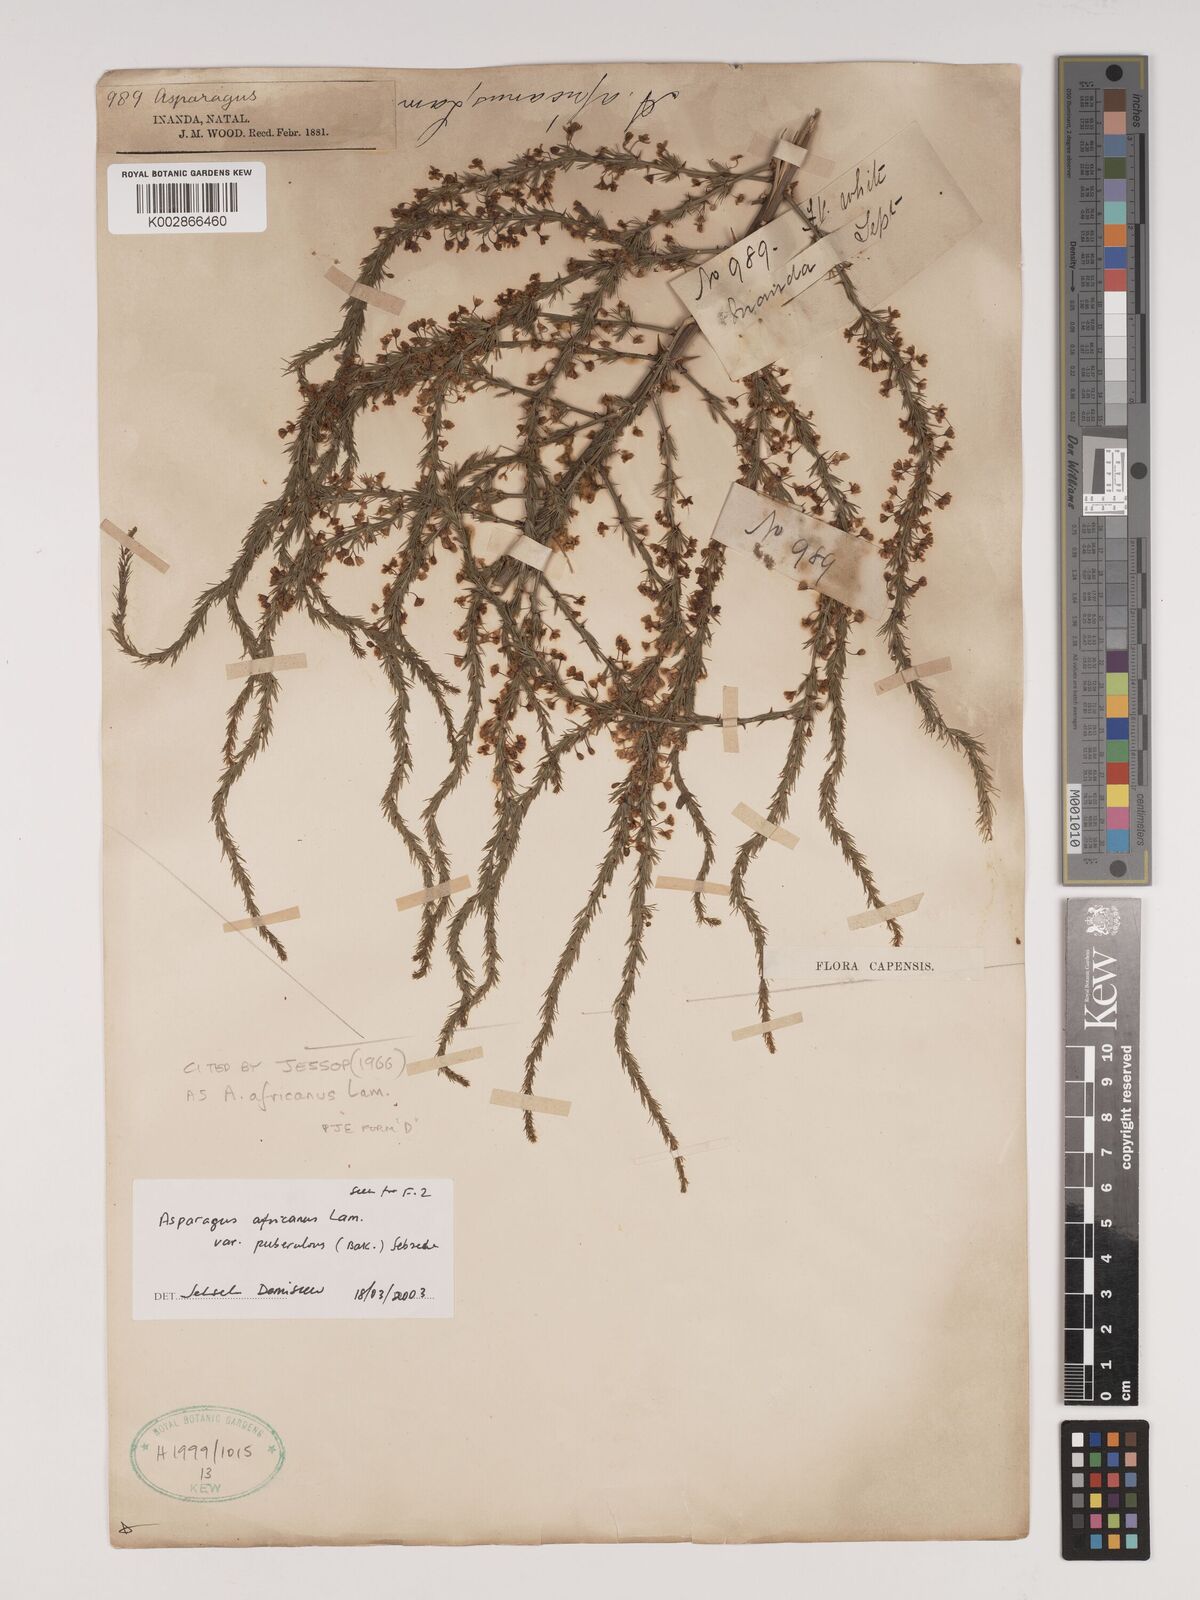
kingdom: Plantae
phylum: Tracheophyta
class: Liliopsida
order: Asparagales
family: Asparagaceae
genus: Asparagus
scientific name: Asparagus africanus
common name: Asparagus-fern
